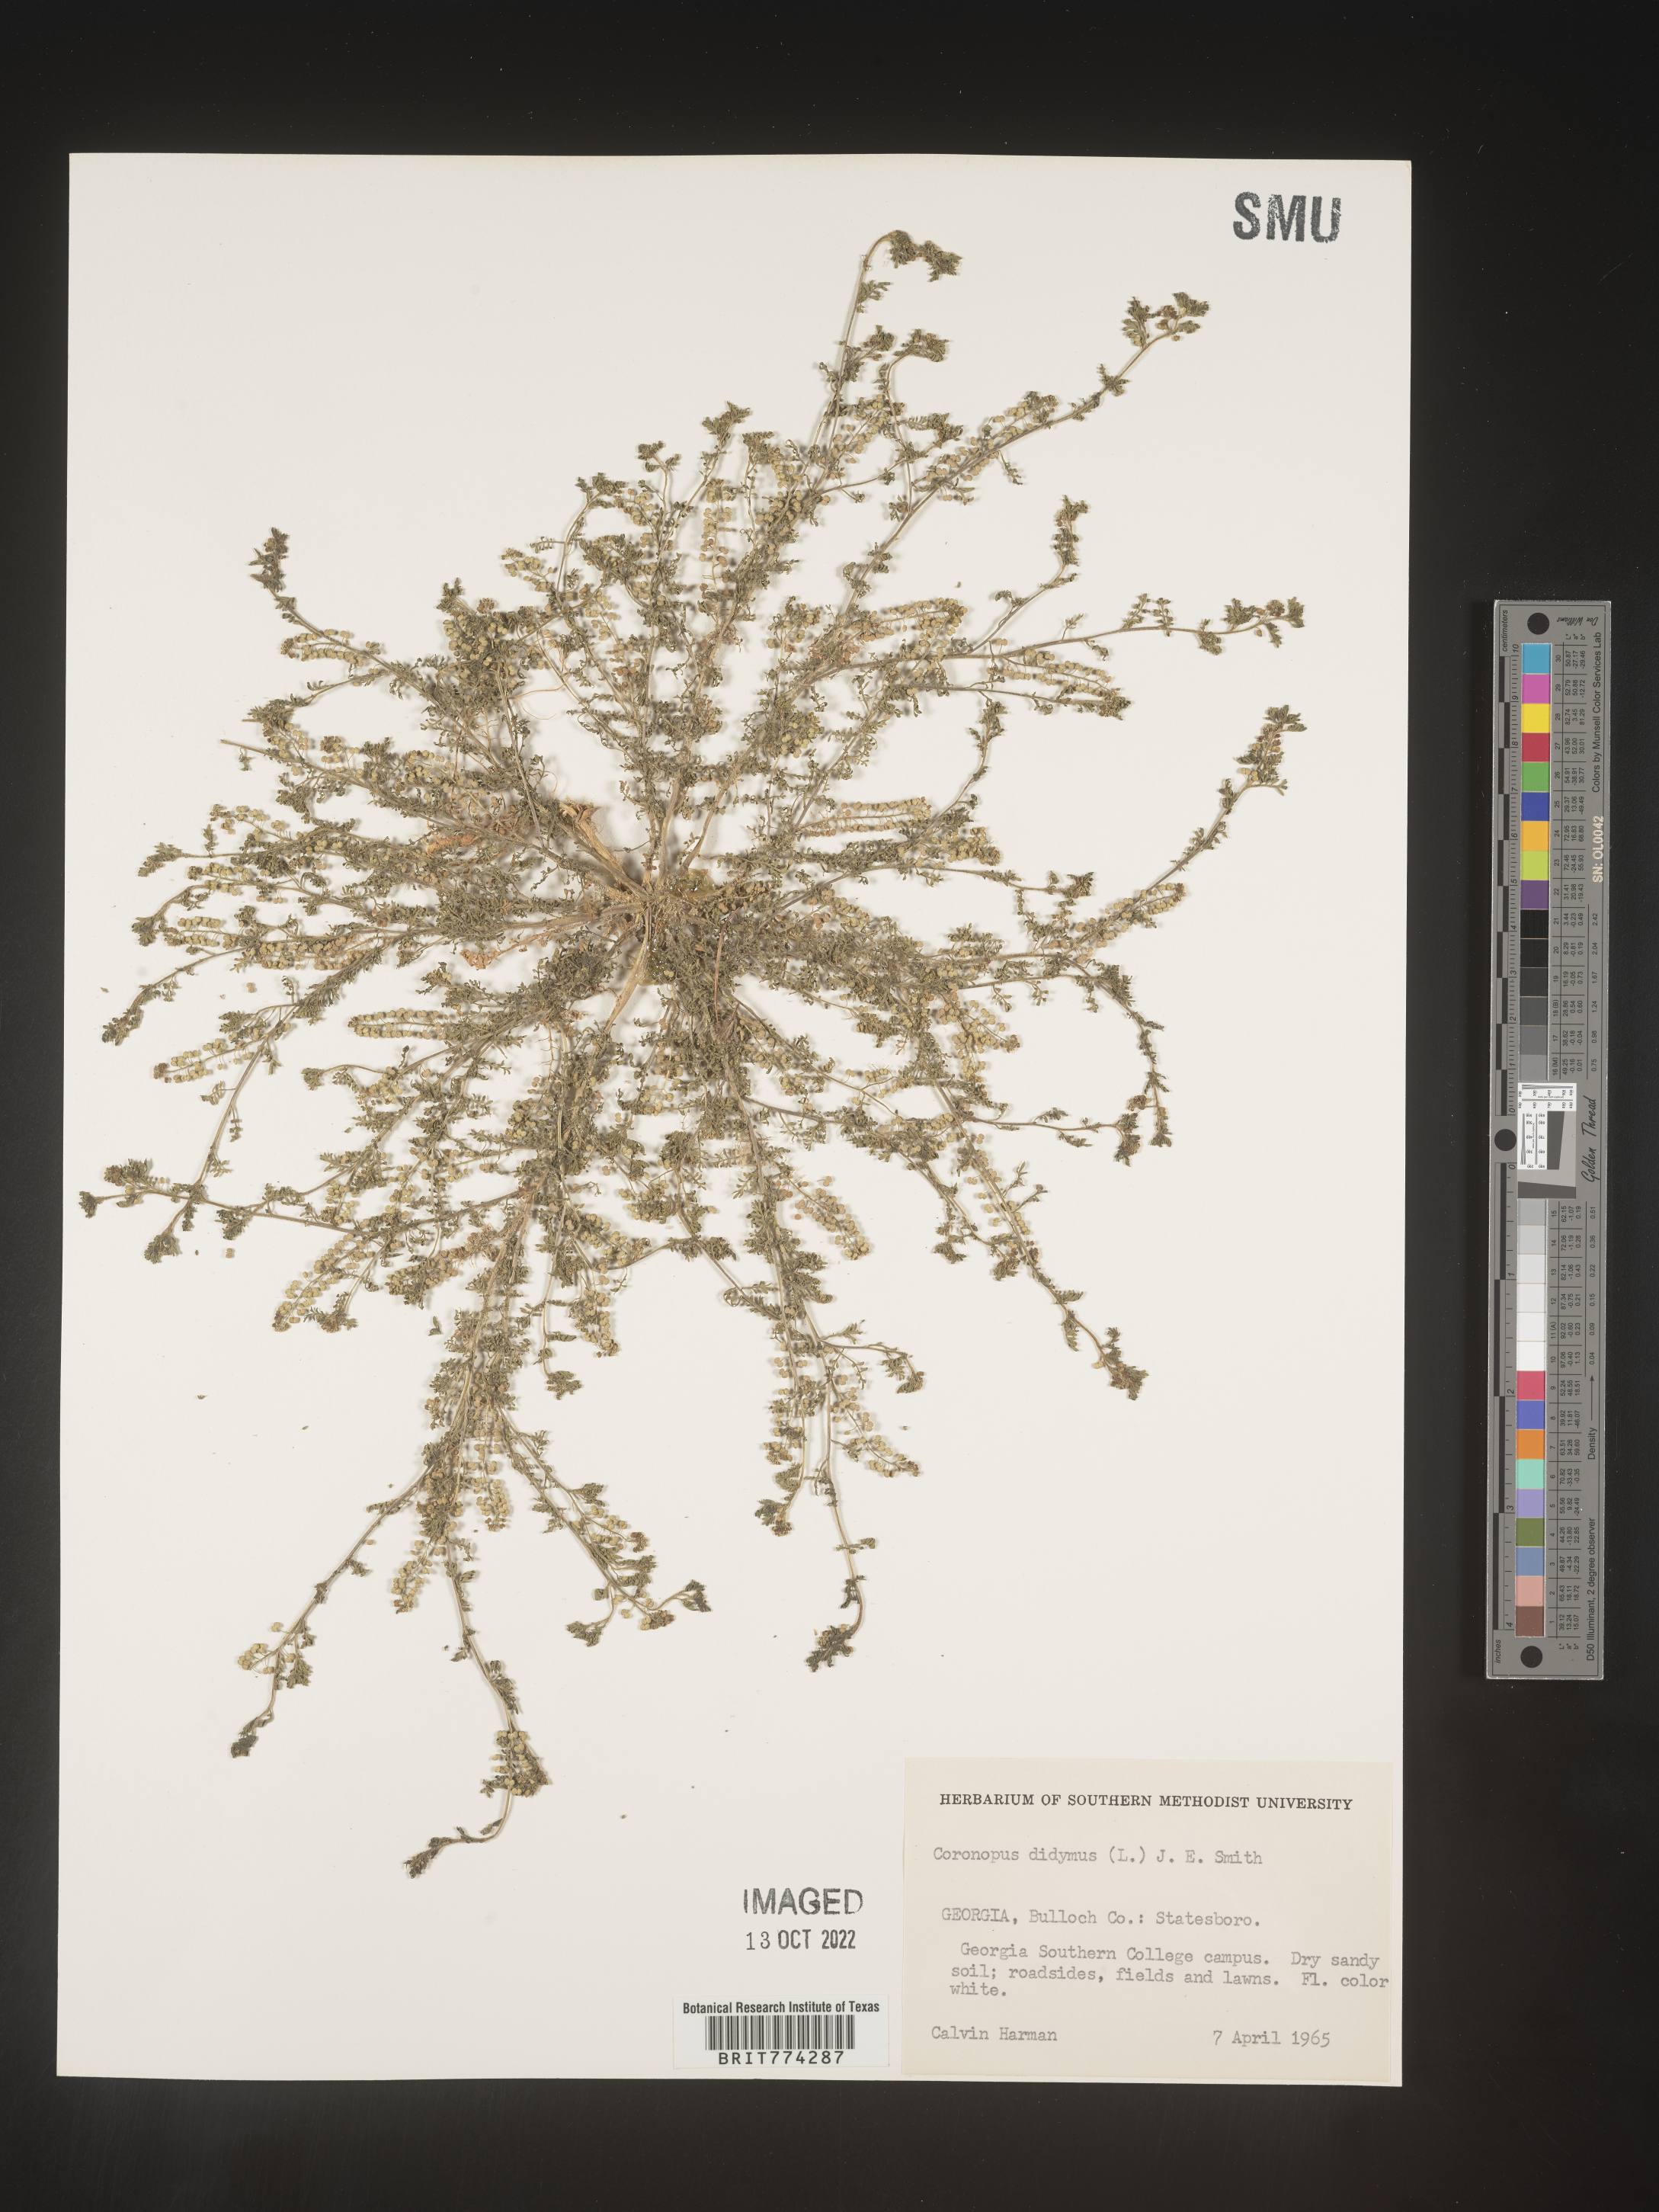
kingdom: Plantae
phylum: Tracheophyta
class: Magnoliopsida
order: Brassicales
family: Brassicaceae
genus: Coronopus
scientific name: Coronopus
